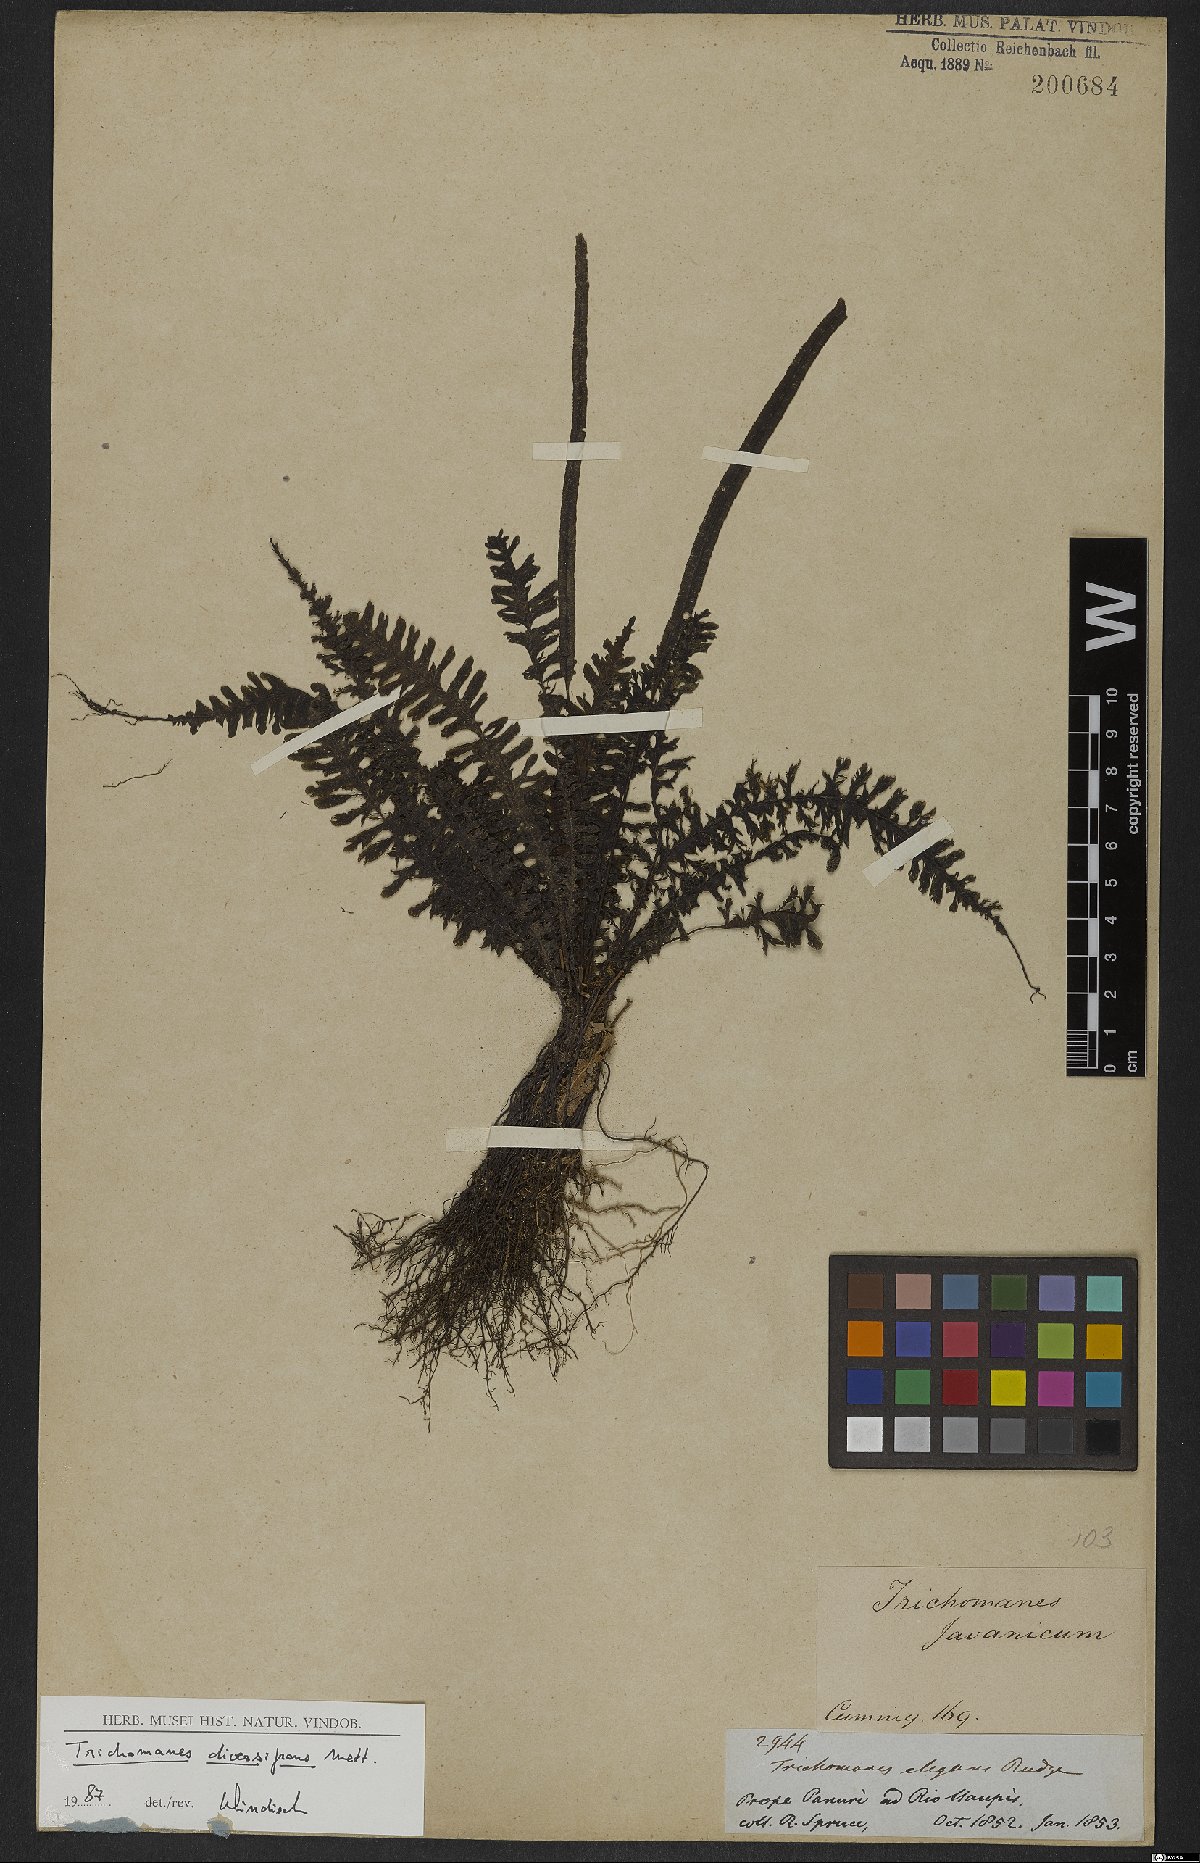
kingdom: Plantae
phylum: Tracheophyta
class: Polypodiopsida
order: Hymenophyllales
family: Hymenophyllaceae
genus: Trichomanes
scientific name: Trichomanes diversifrons
